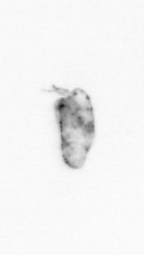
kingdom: Animalia
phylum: Arthropoda
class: Copepoda
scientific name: Copepoda
